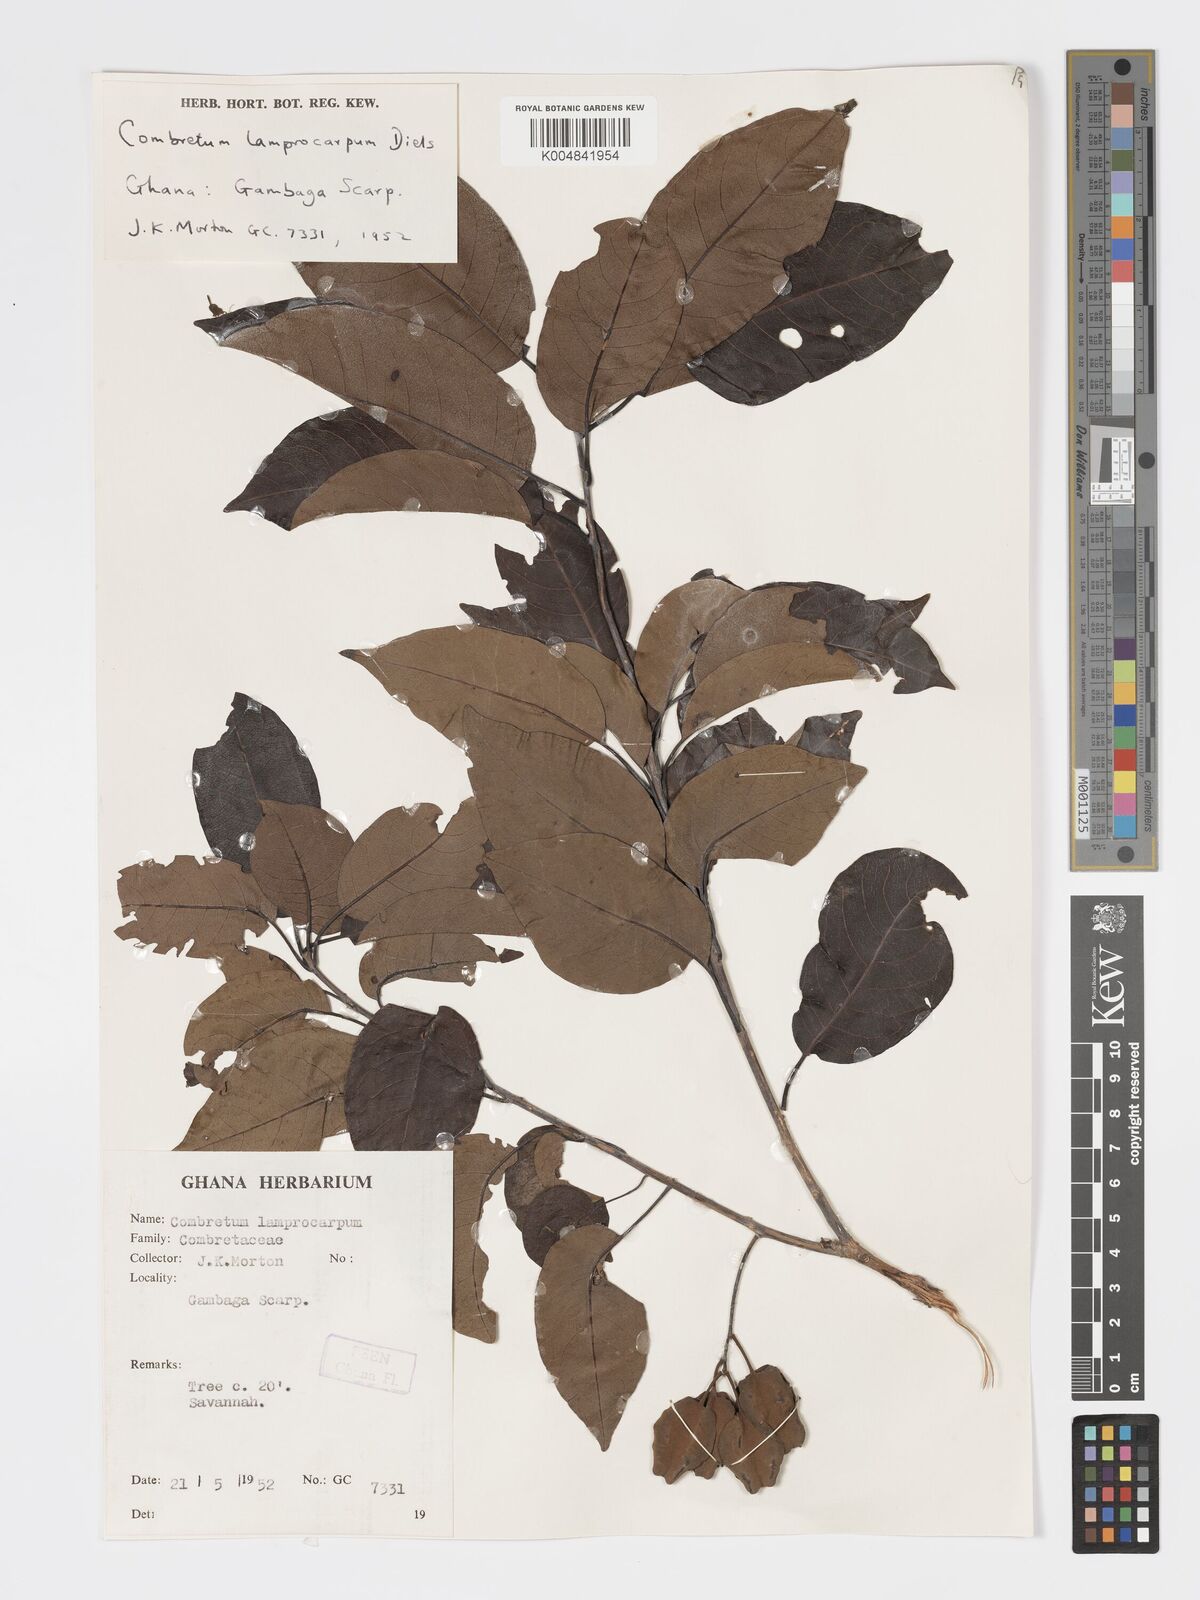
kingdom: Plantae
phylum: Tracheophyta
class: Magnoliopsida
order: Myrtales
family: Combretaceae
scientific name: Combretaceae
